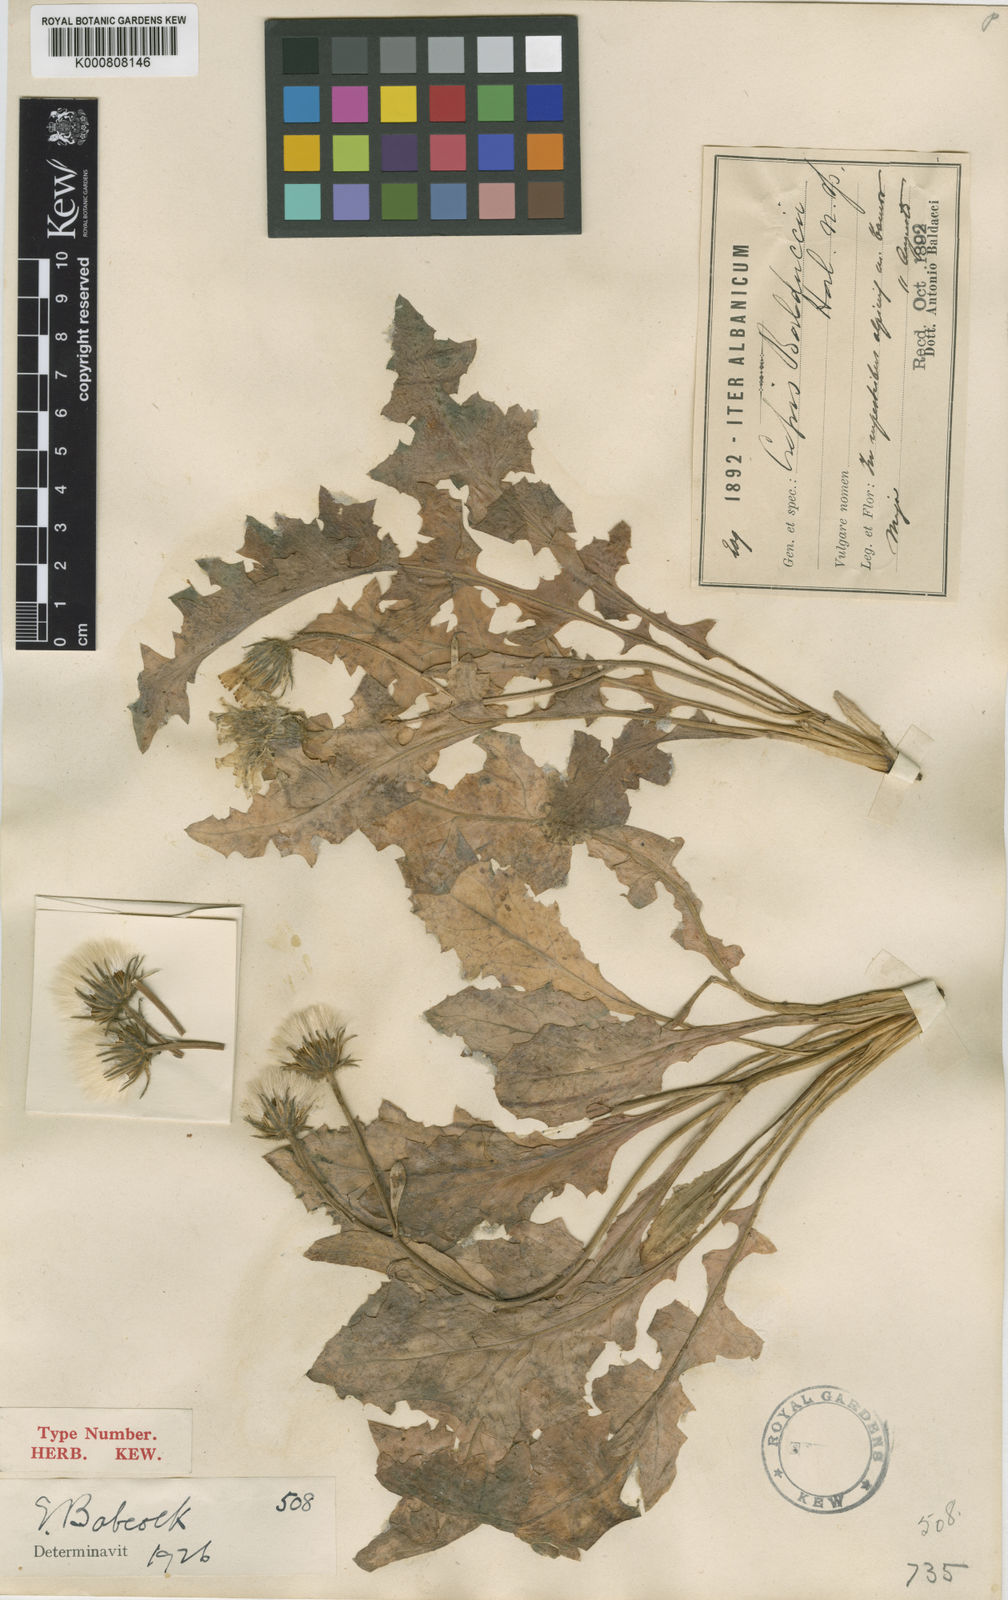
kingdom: Plantae
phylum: Tracheophyta
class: Magnoliopsida
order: Asterales
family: Asteraceae
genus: Crepis
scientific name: Crepis
